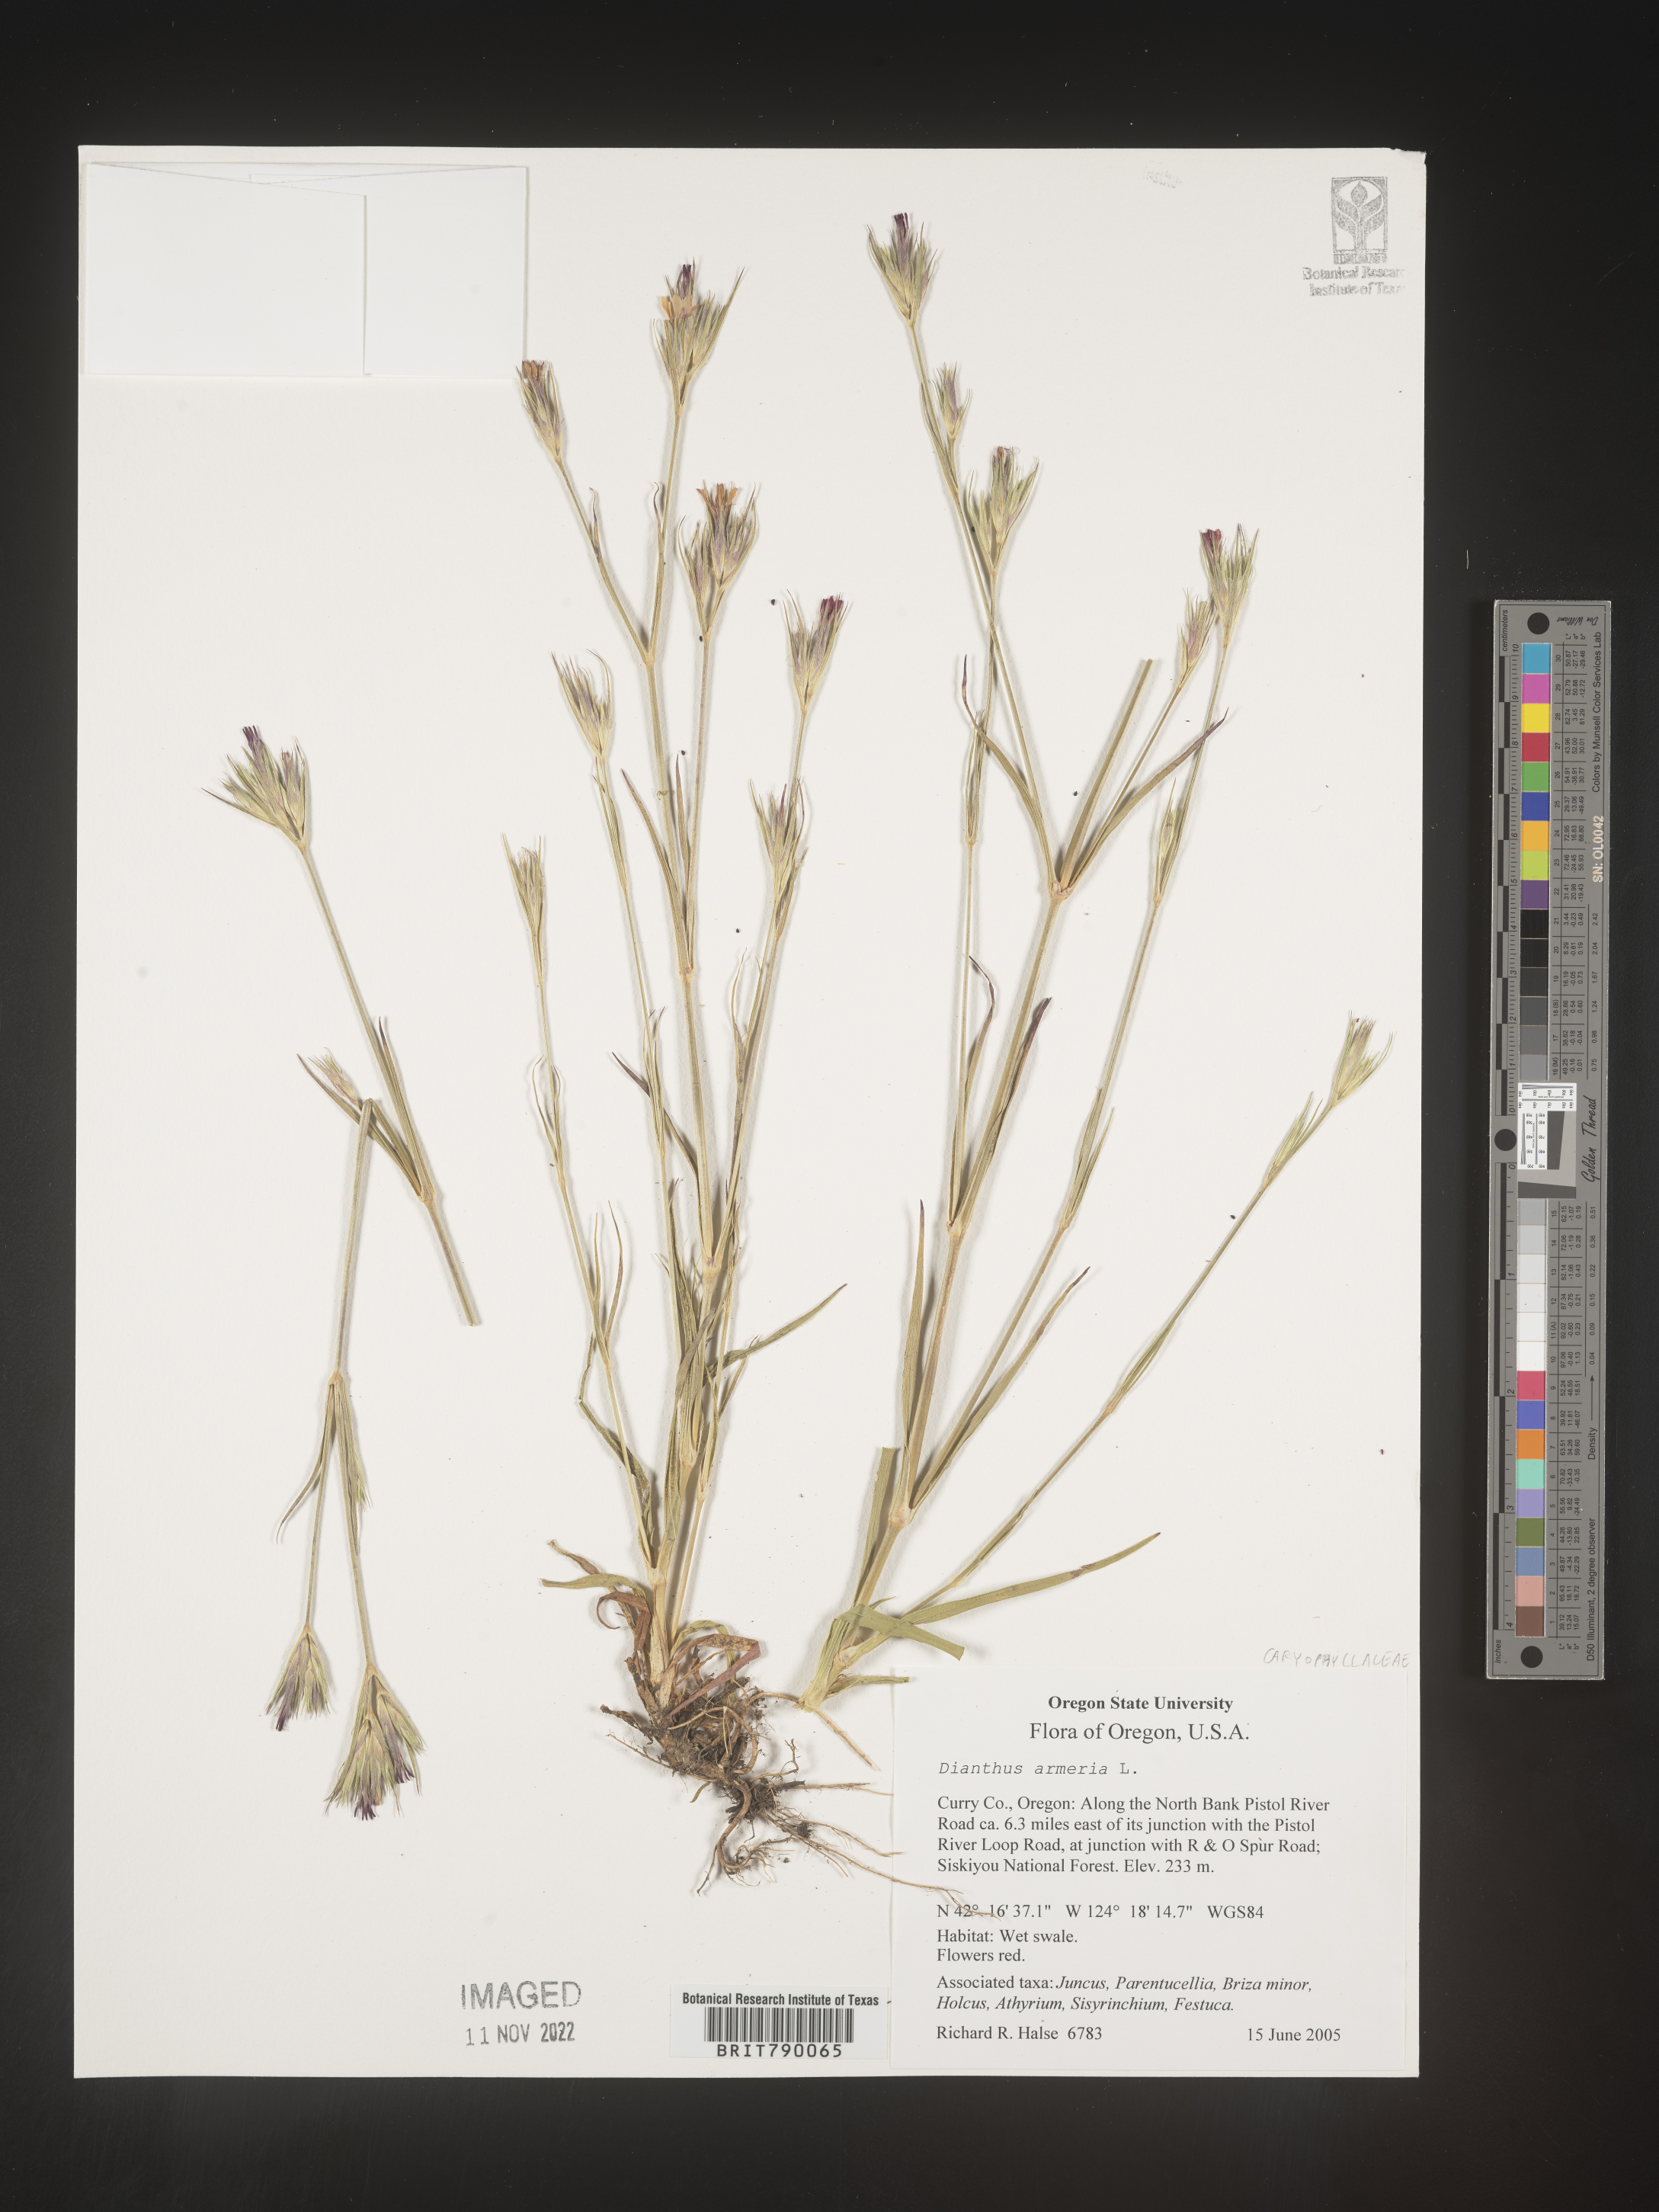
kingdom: Plantae
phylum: Tracheophyta
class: Magnoliopsida
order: Caryophyllales
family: Caryophyllaceae
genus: Dianthus
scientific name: Dianthus armeria
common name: Deptford pink
